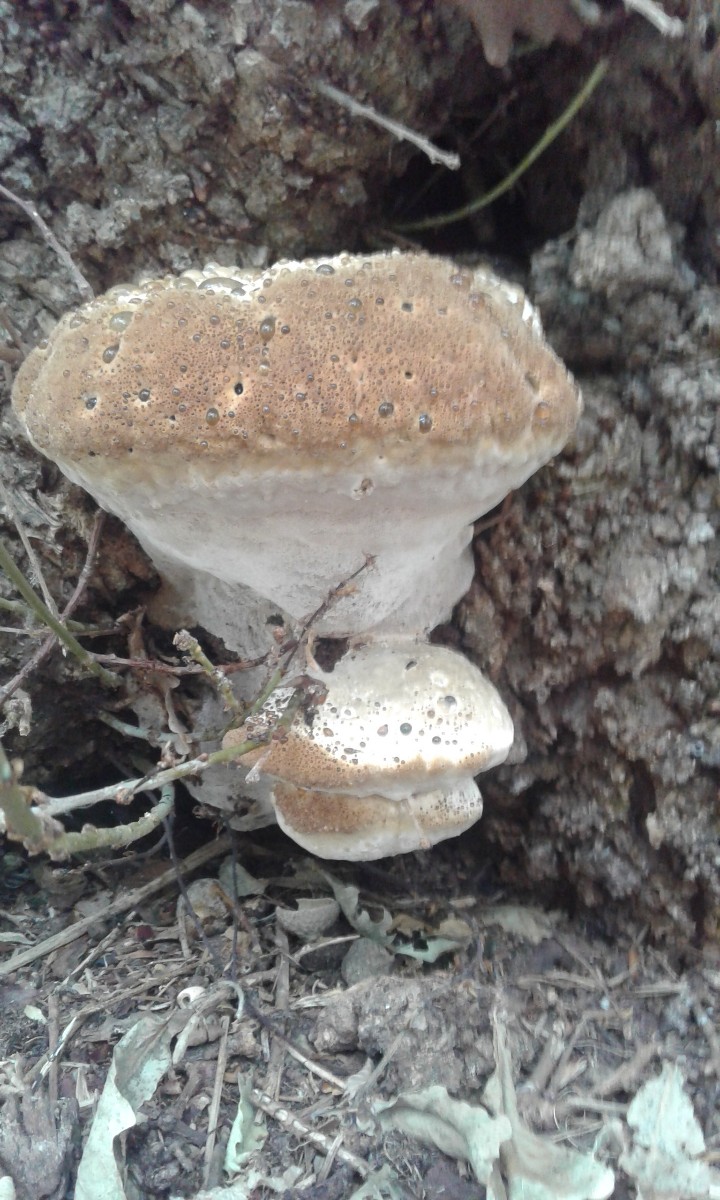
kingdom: Fungi
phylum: Basidiomycota
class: Agaricomycetes
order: Hymenochaetales
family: Hymenochaetaceae
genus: Pseudoinonotus
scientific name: Pseudoinonotus dryadeus
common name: ege-spejlporesvamp
